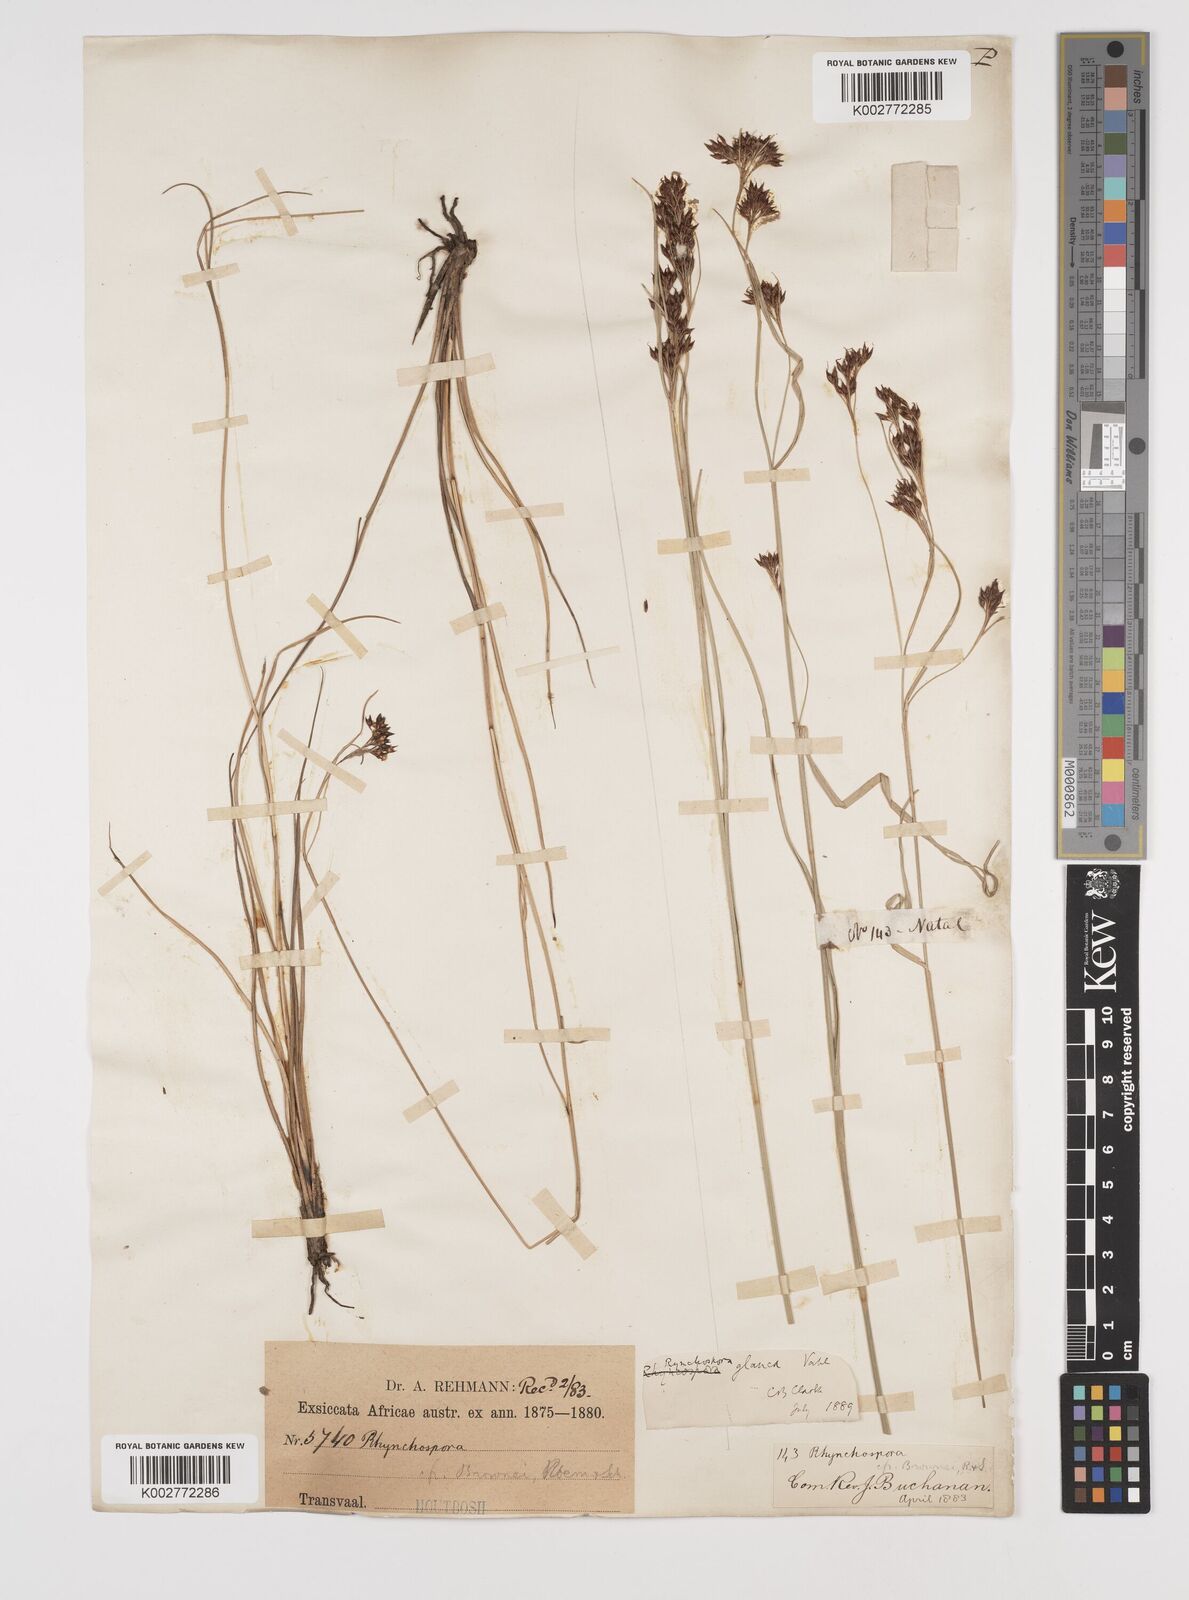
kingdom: Plantae
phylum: Tracheophyta
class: Liliopsida
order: Poales
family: Cyperaceae
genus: Rhynchospora
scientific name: Rhynchospora rugosa
